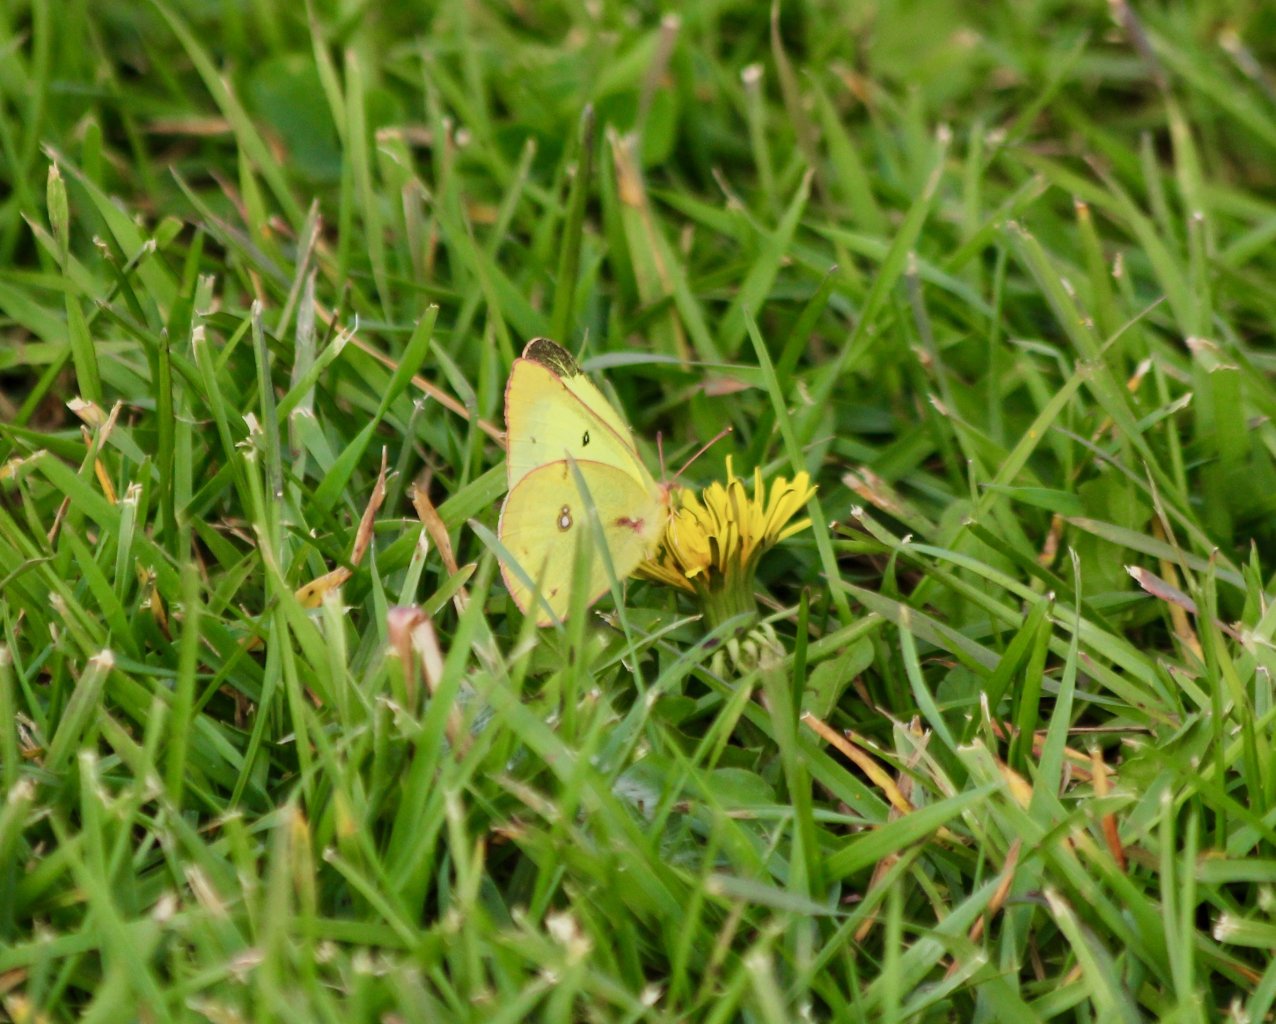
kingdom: Animalia
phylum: Arthropoda
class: Insecta
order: Lepidoptera
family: Pieridae
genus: Colias
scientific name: Colias philodice
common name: Clouded Sulphur
